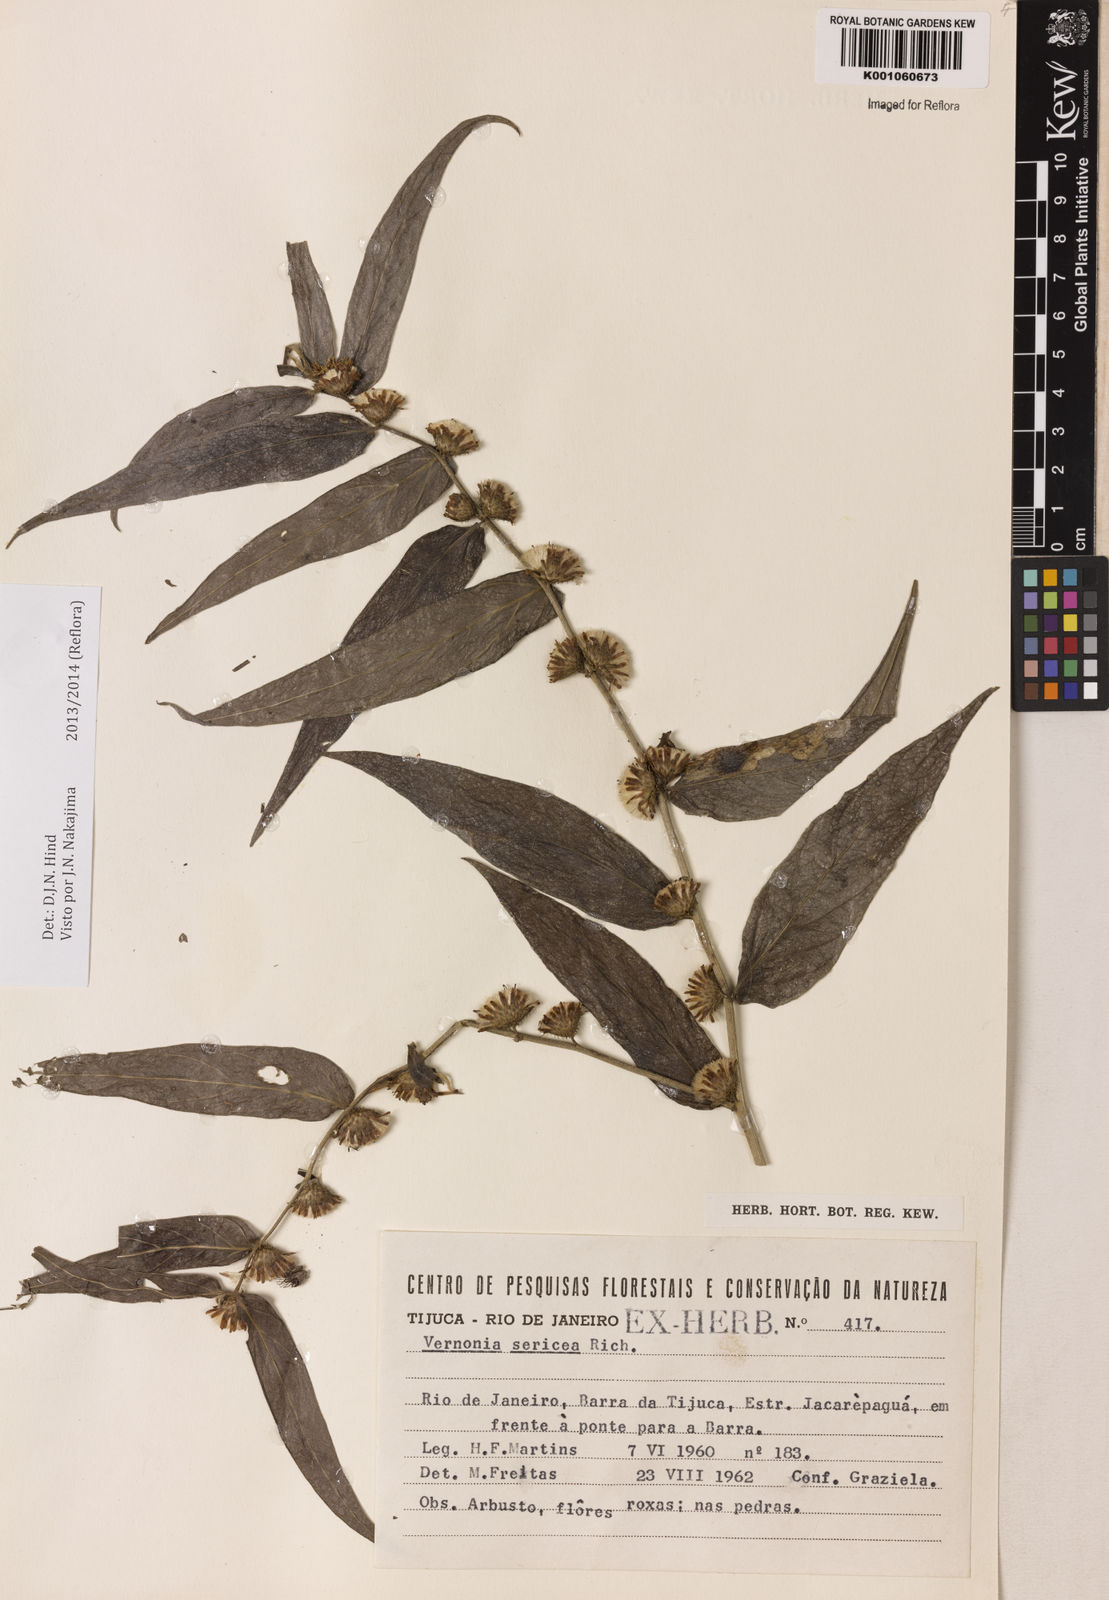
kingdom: Plantae
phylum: Tracheophyta
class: Magnoliopsida
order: Asterales
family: Asteraceae
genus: Lepidaploa
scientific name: Lepidaploa sericea
